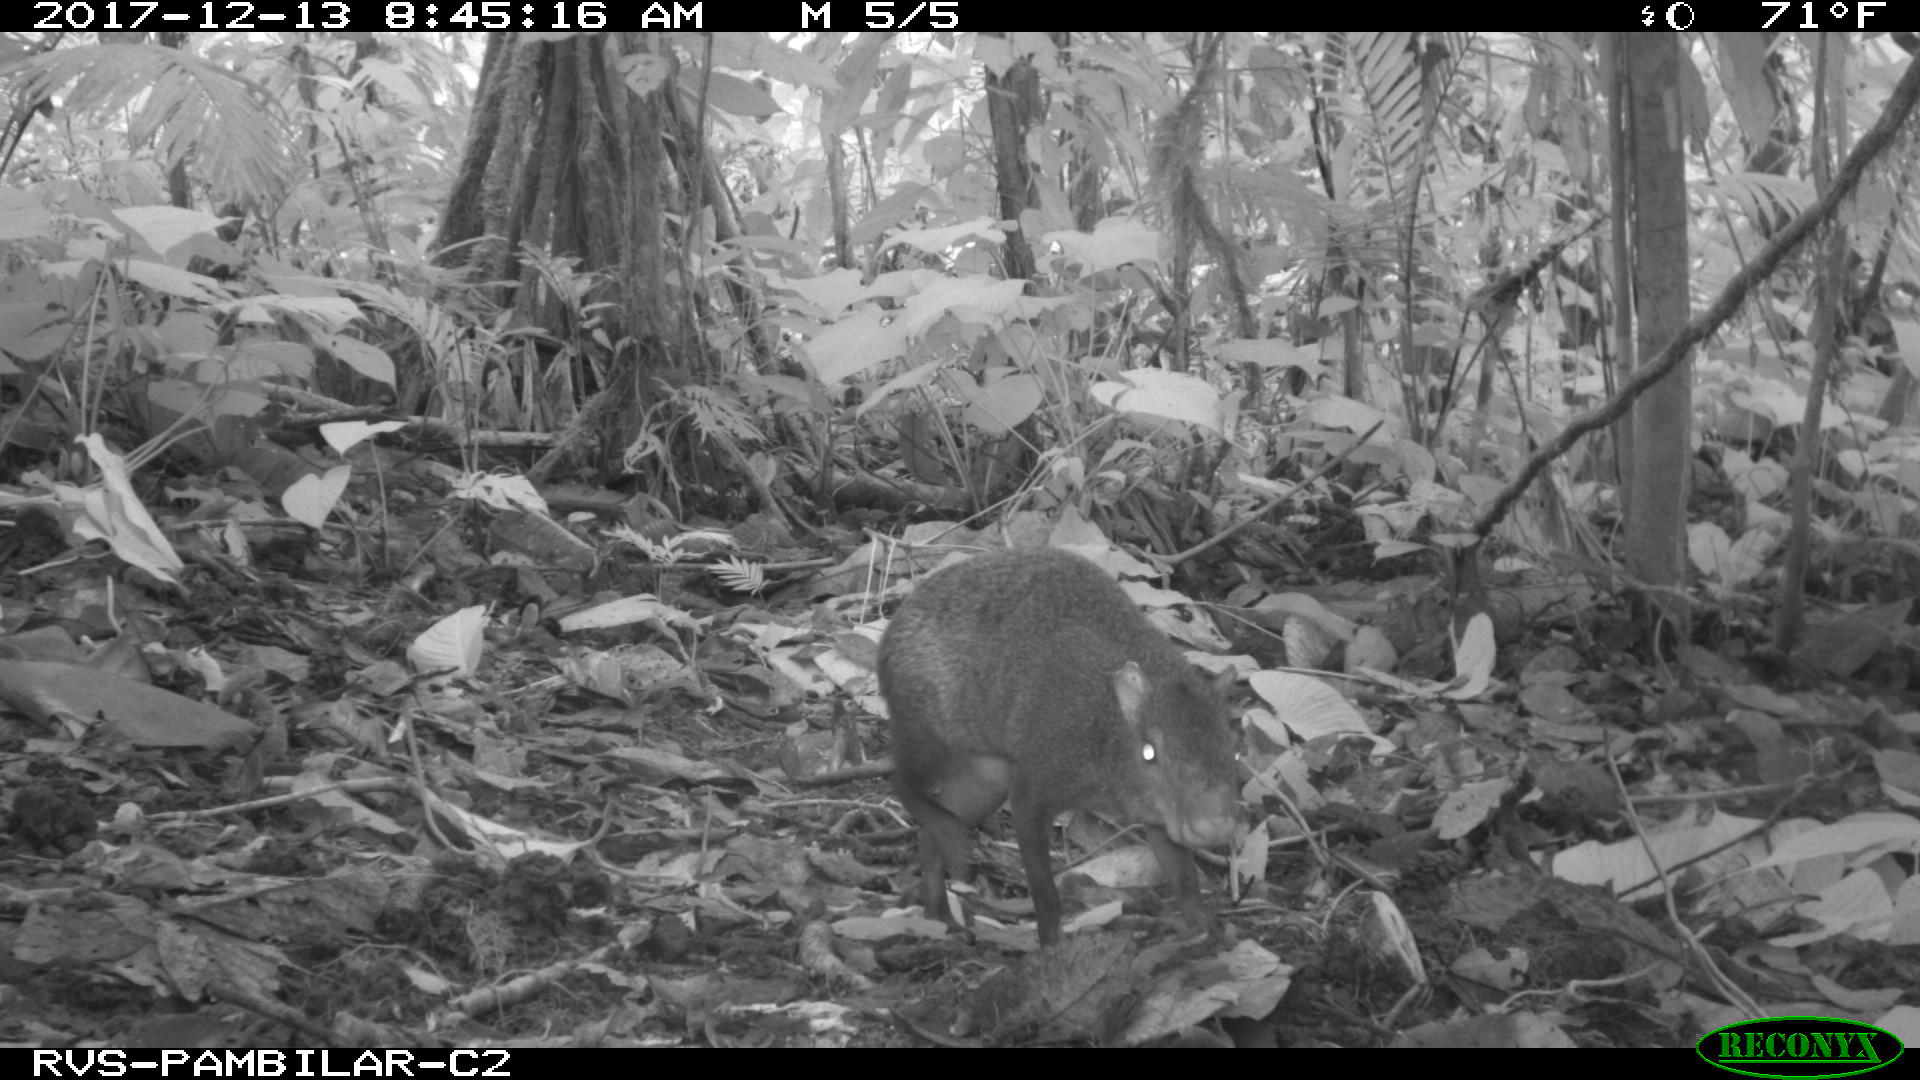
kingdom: Animalia
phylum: Chordata
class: Mammalia
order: Rodentia
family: Dasyproctidae
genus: Dasyprocta
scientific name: Dasyprocta punctata
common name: Central american agouti
